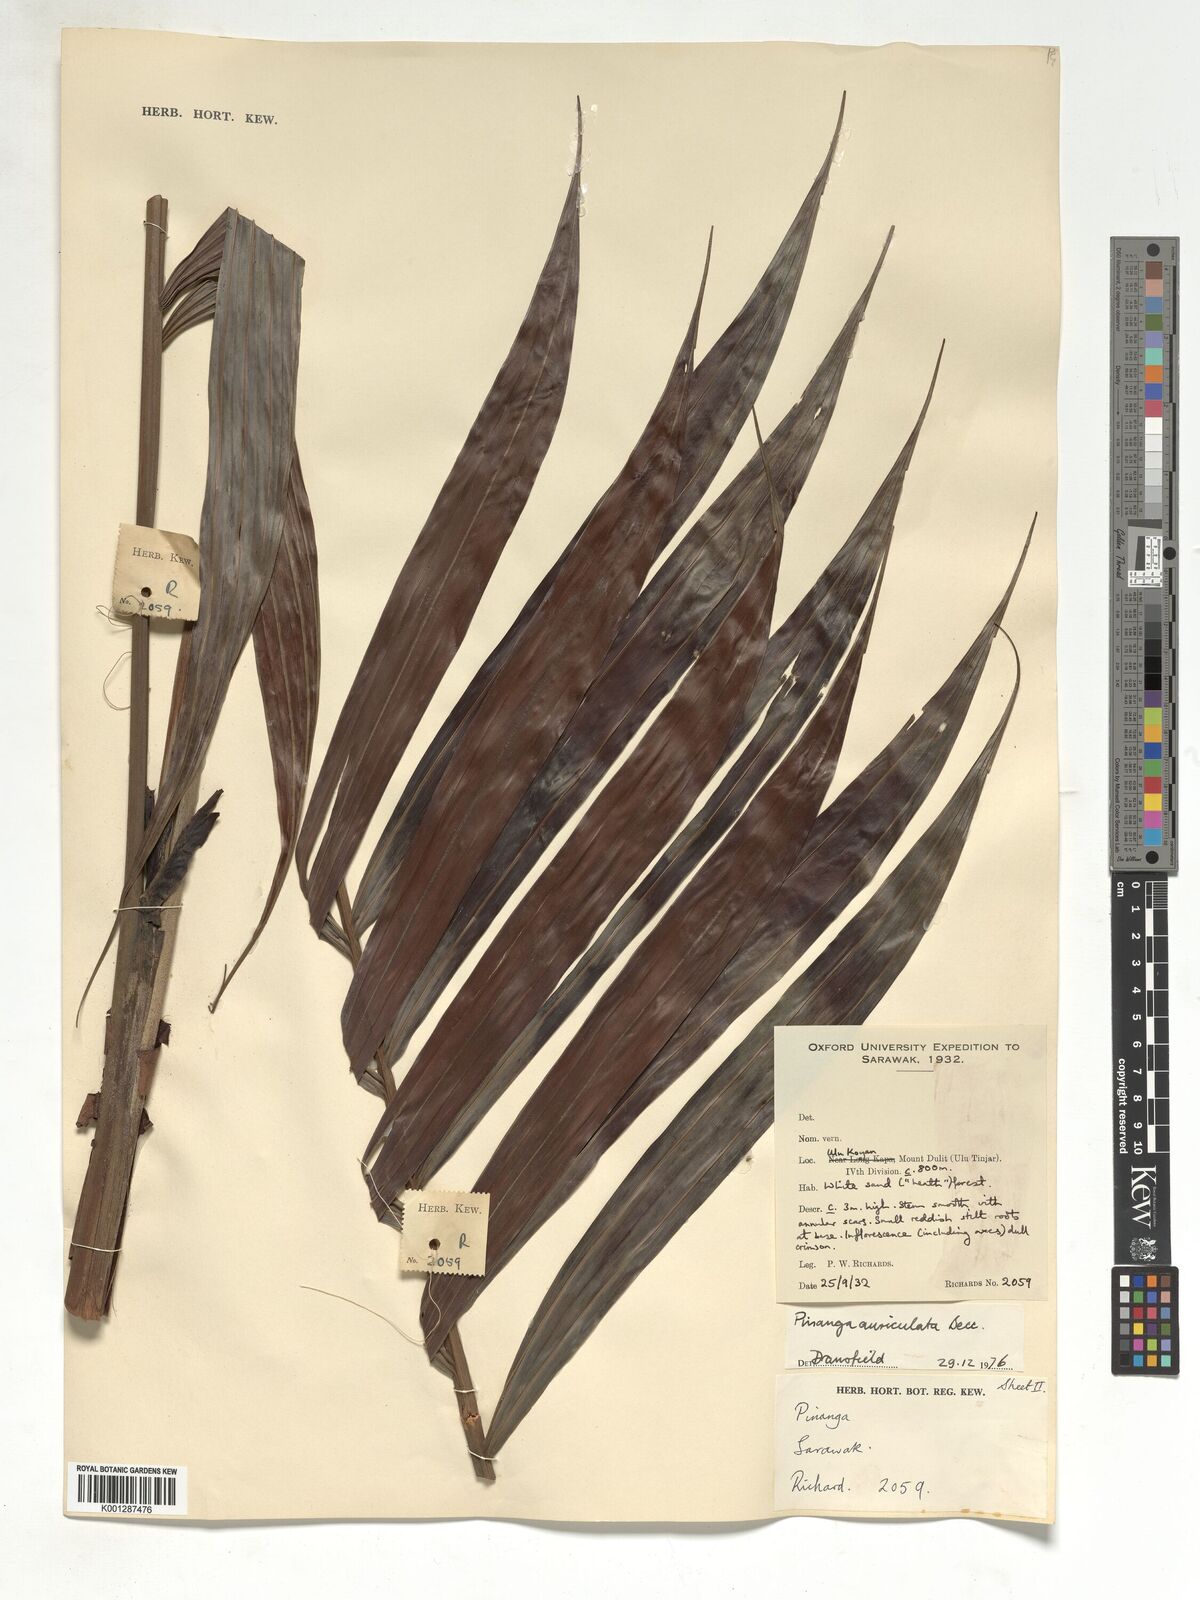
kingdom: Plantae
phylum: Tracheophyta
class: Liliopsida
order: Arecales
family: Arecaceae
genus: Pinanga
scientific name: Pinanga auriculata
